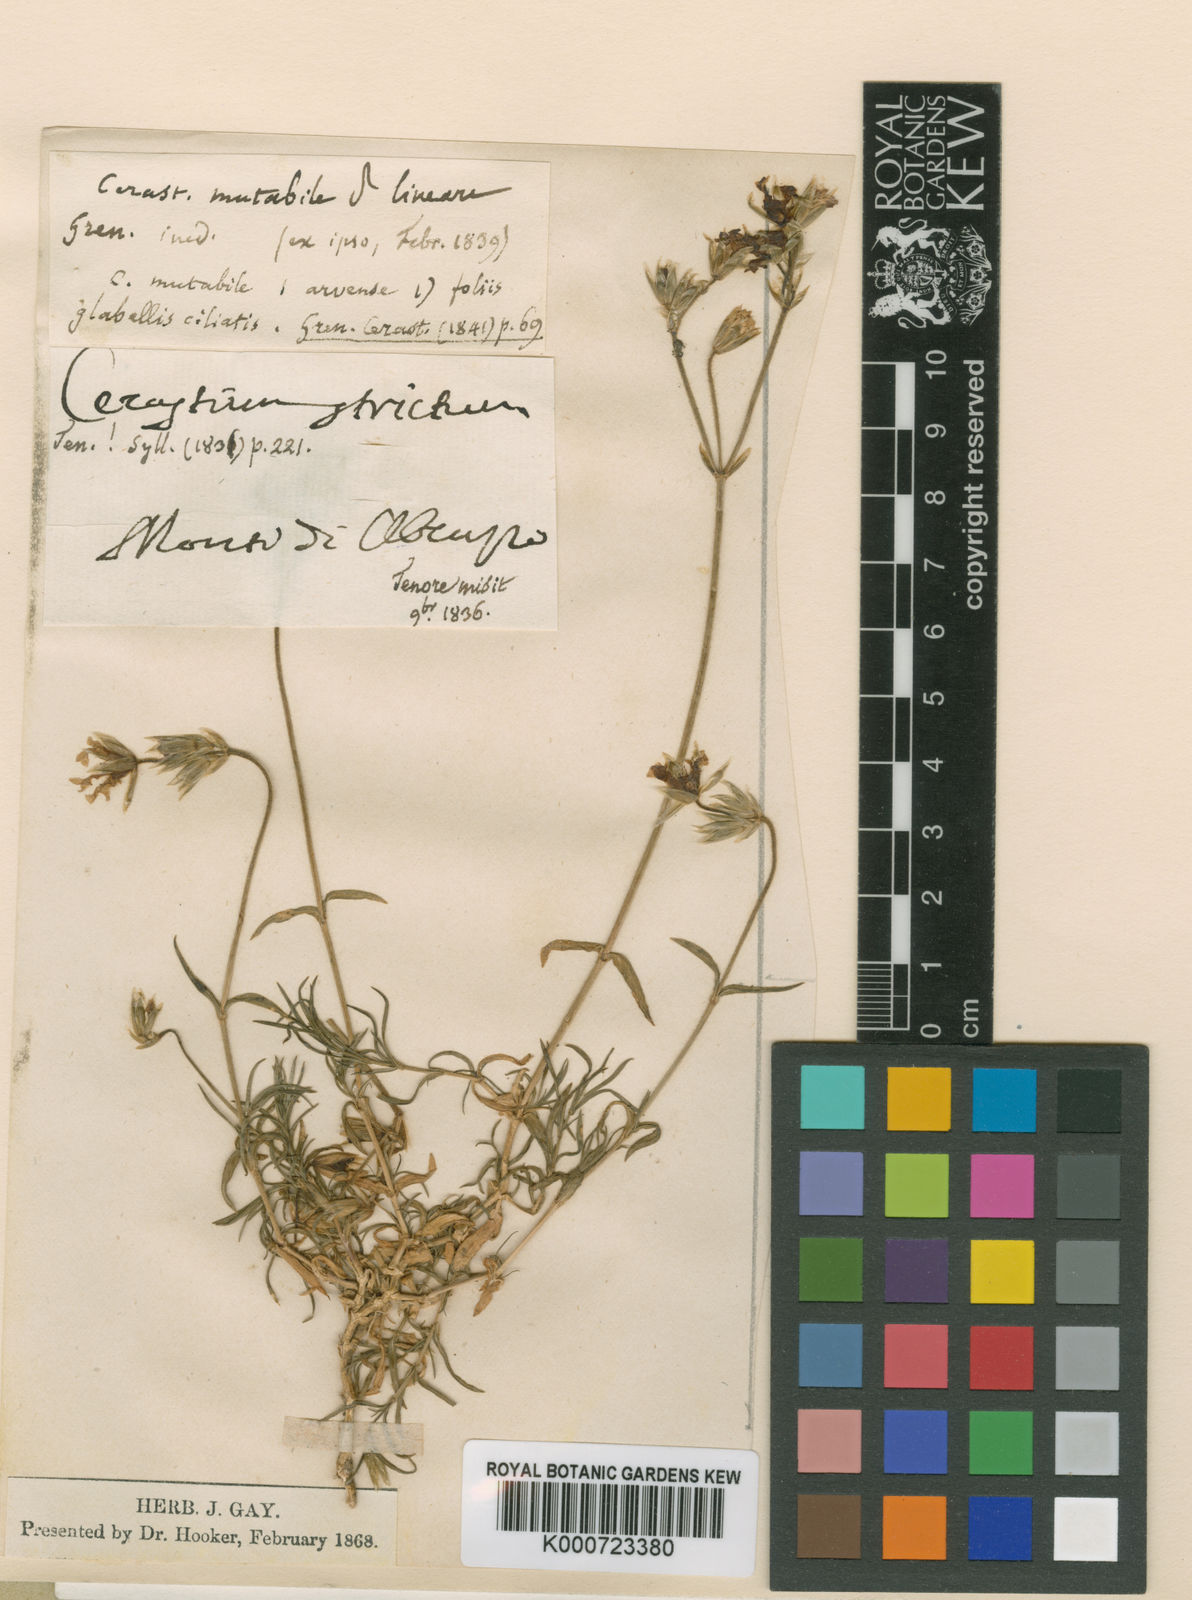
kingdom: Plantae
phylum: Tracheophyta
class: Magnoliopsida
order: Caryophyllales
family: Caryophyllaceae
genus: Cerastium
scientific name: Cerastium arvense
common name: Field mouse-ear
